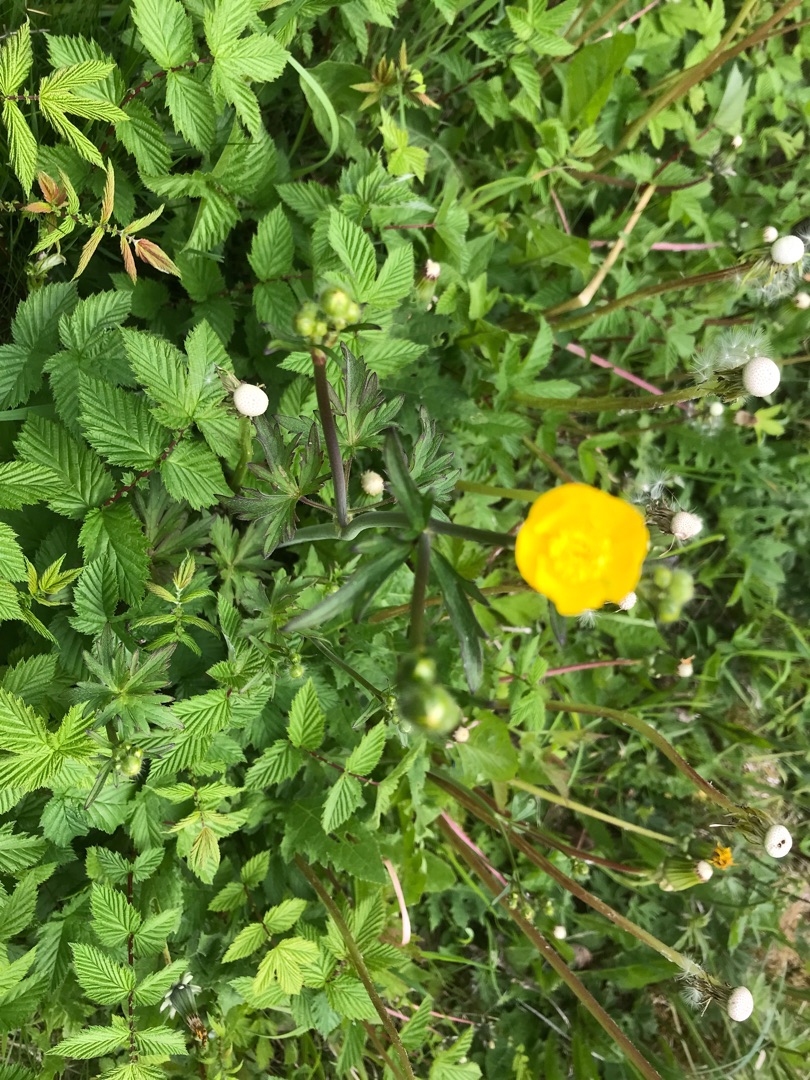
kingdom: Plantae
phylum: Tracheophyta
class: Magnoliopsida
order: Ranunculales
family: Ranunculaceae
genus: Ranunculus
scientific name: Ranunculus acris
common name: Bidende ranunkel
